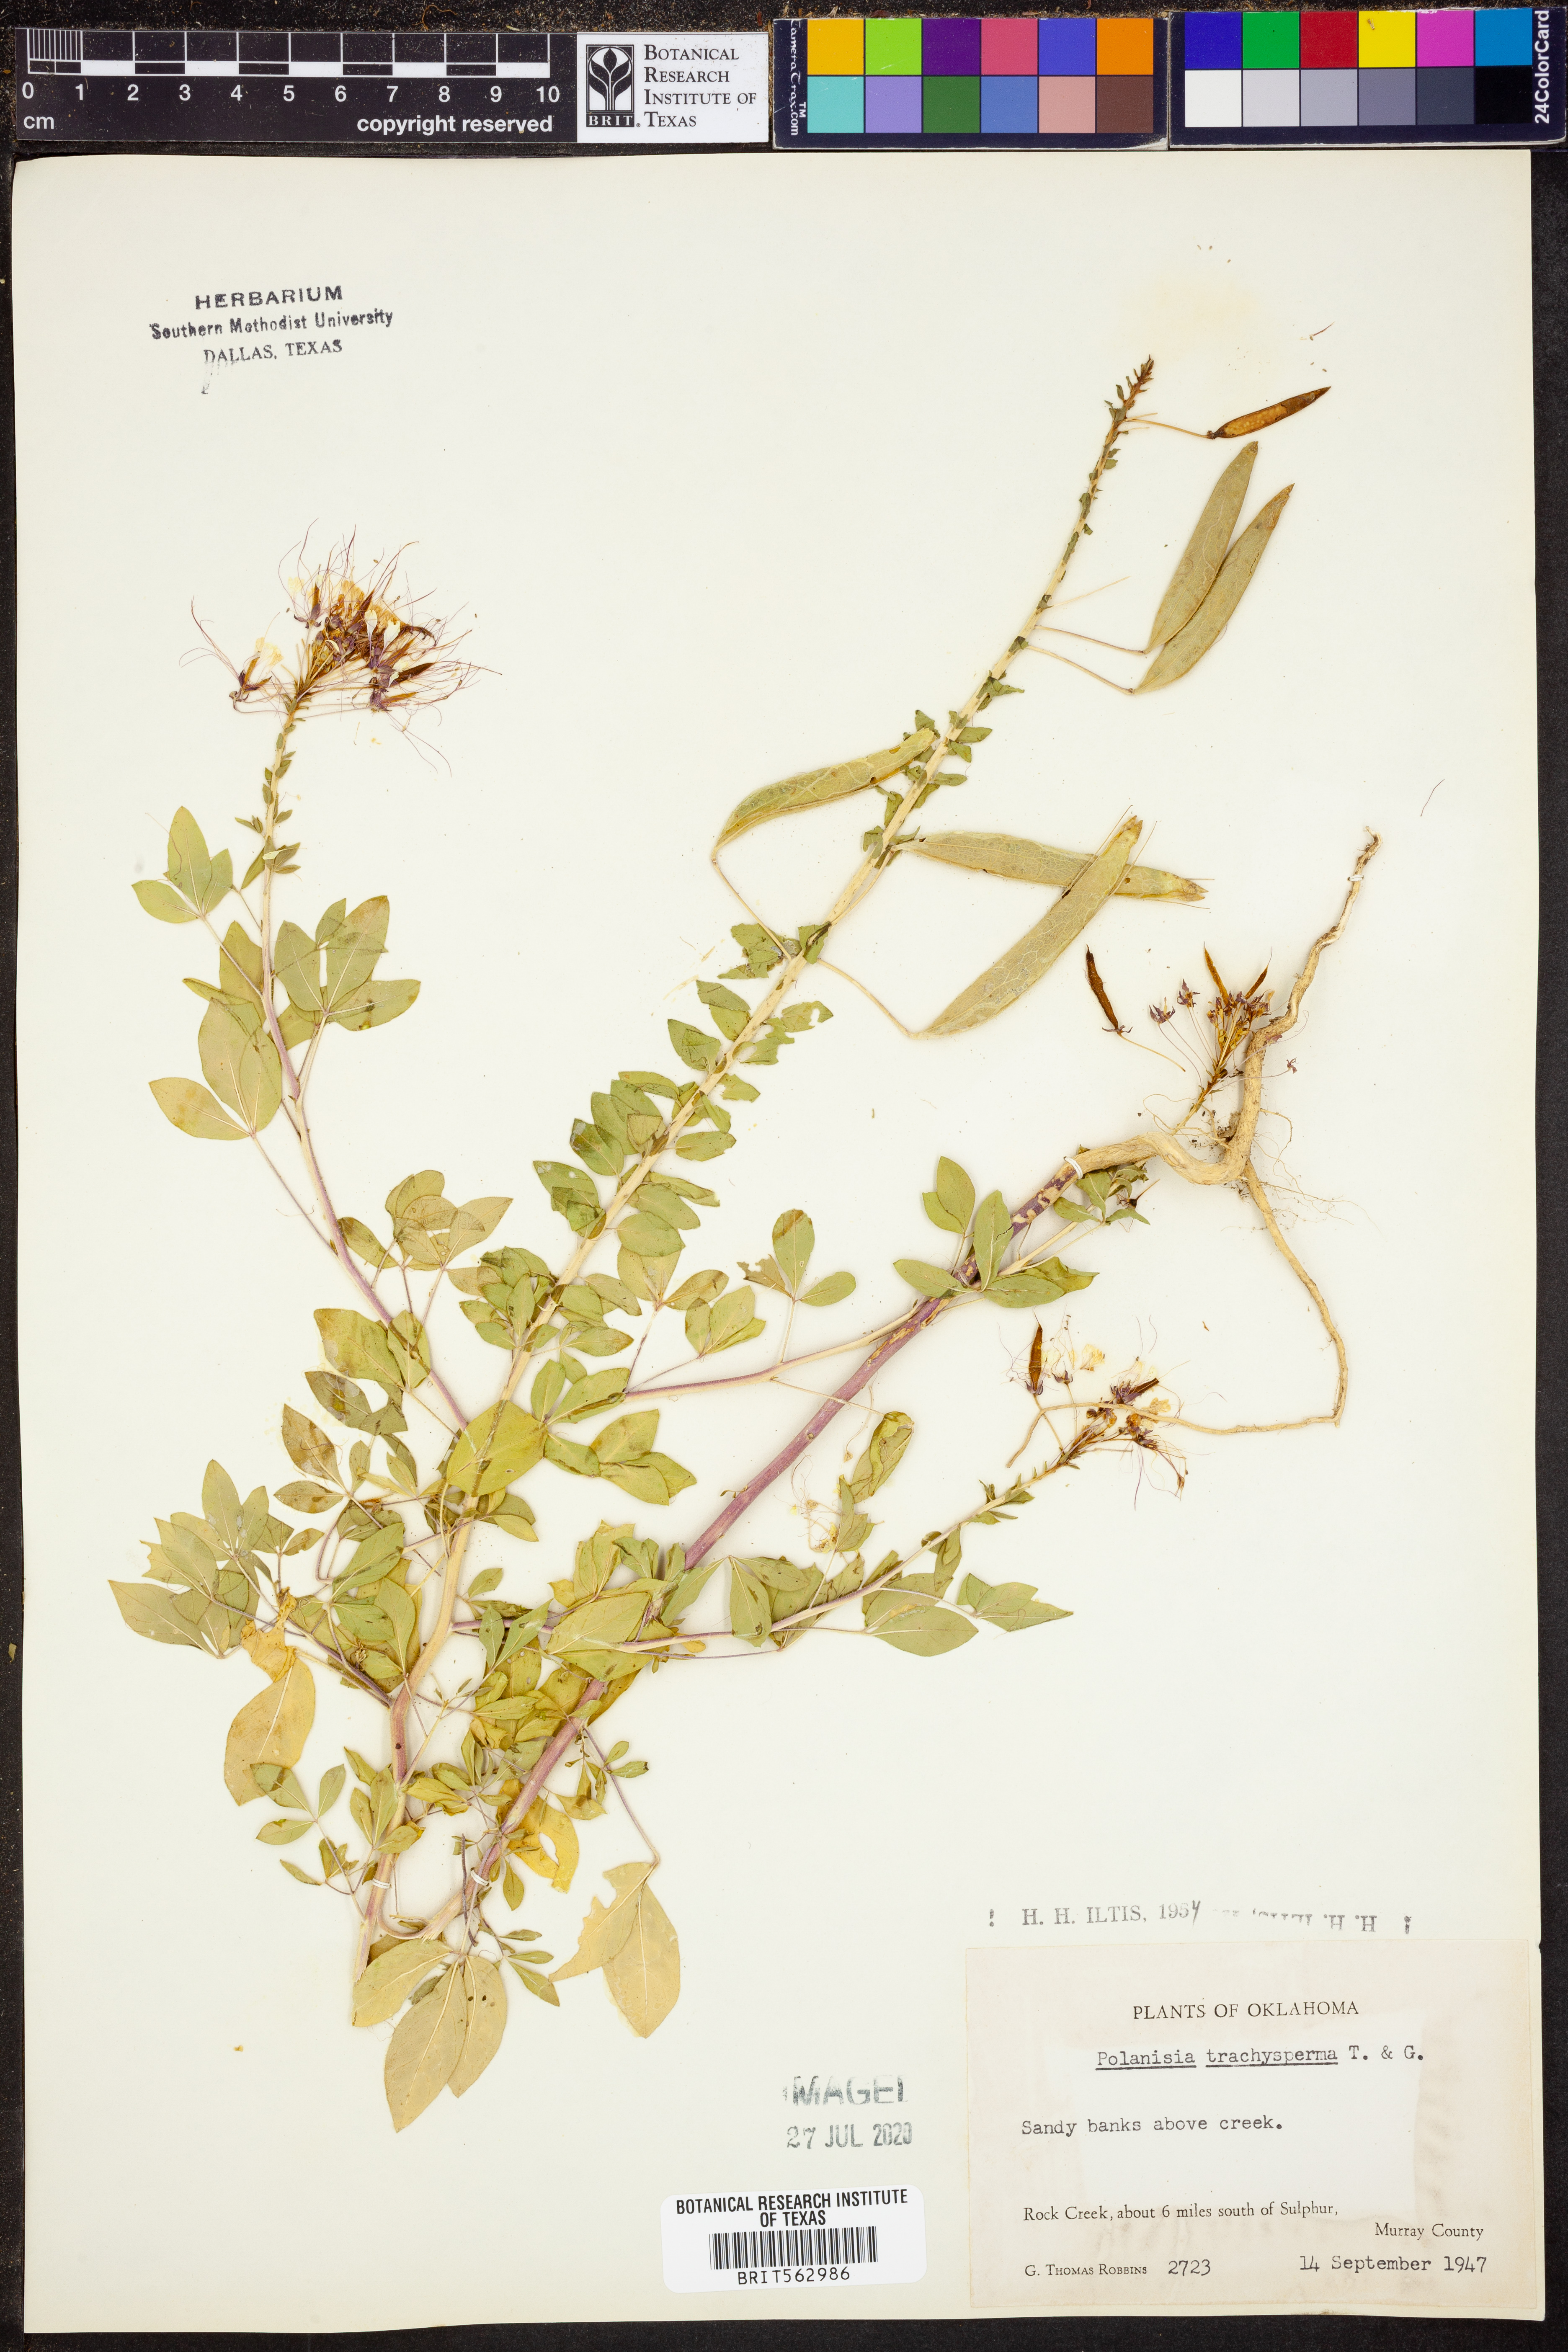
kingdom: Plantae
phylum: Tracheophyta
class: Magnoliopsida
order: Brassicales
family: Cleomaceae
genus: Polanisia
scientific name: Polanisia trachysperma
